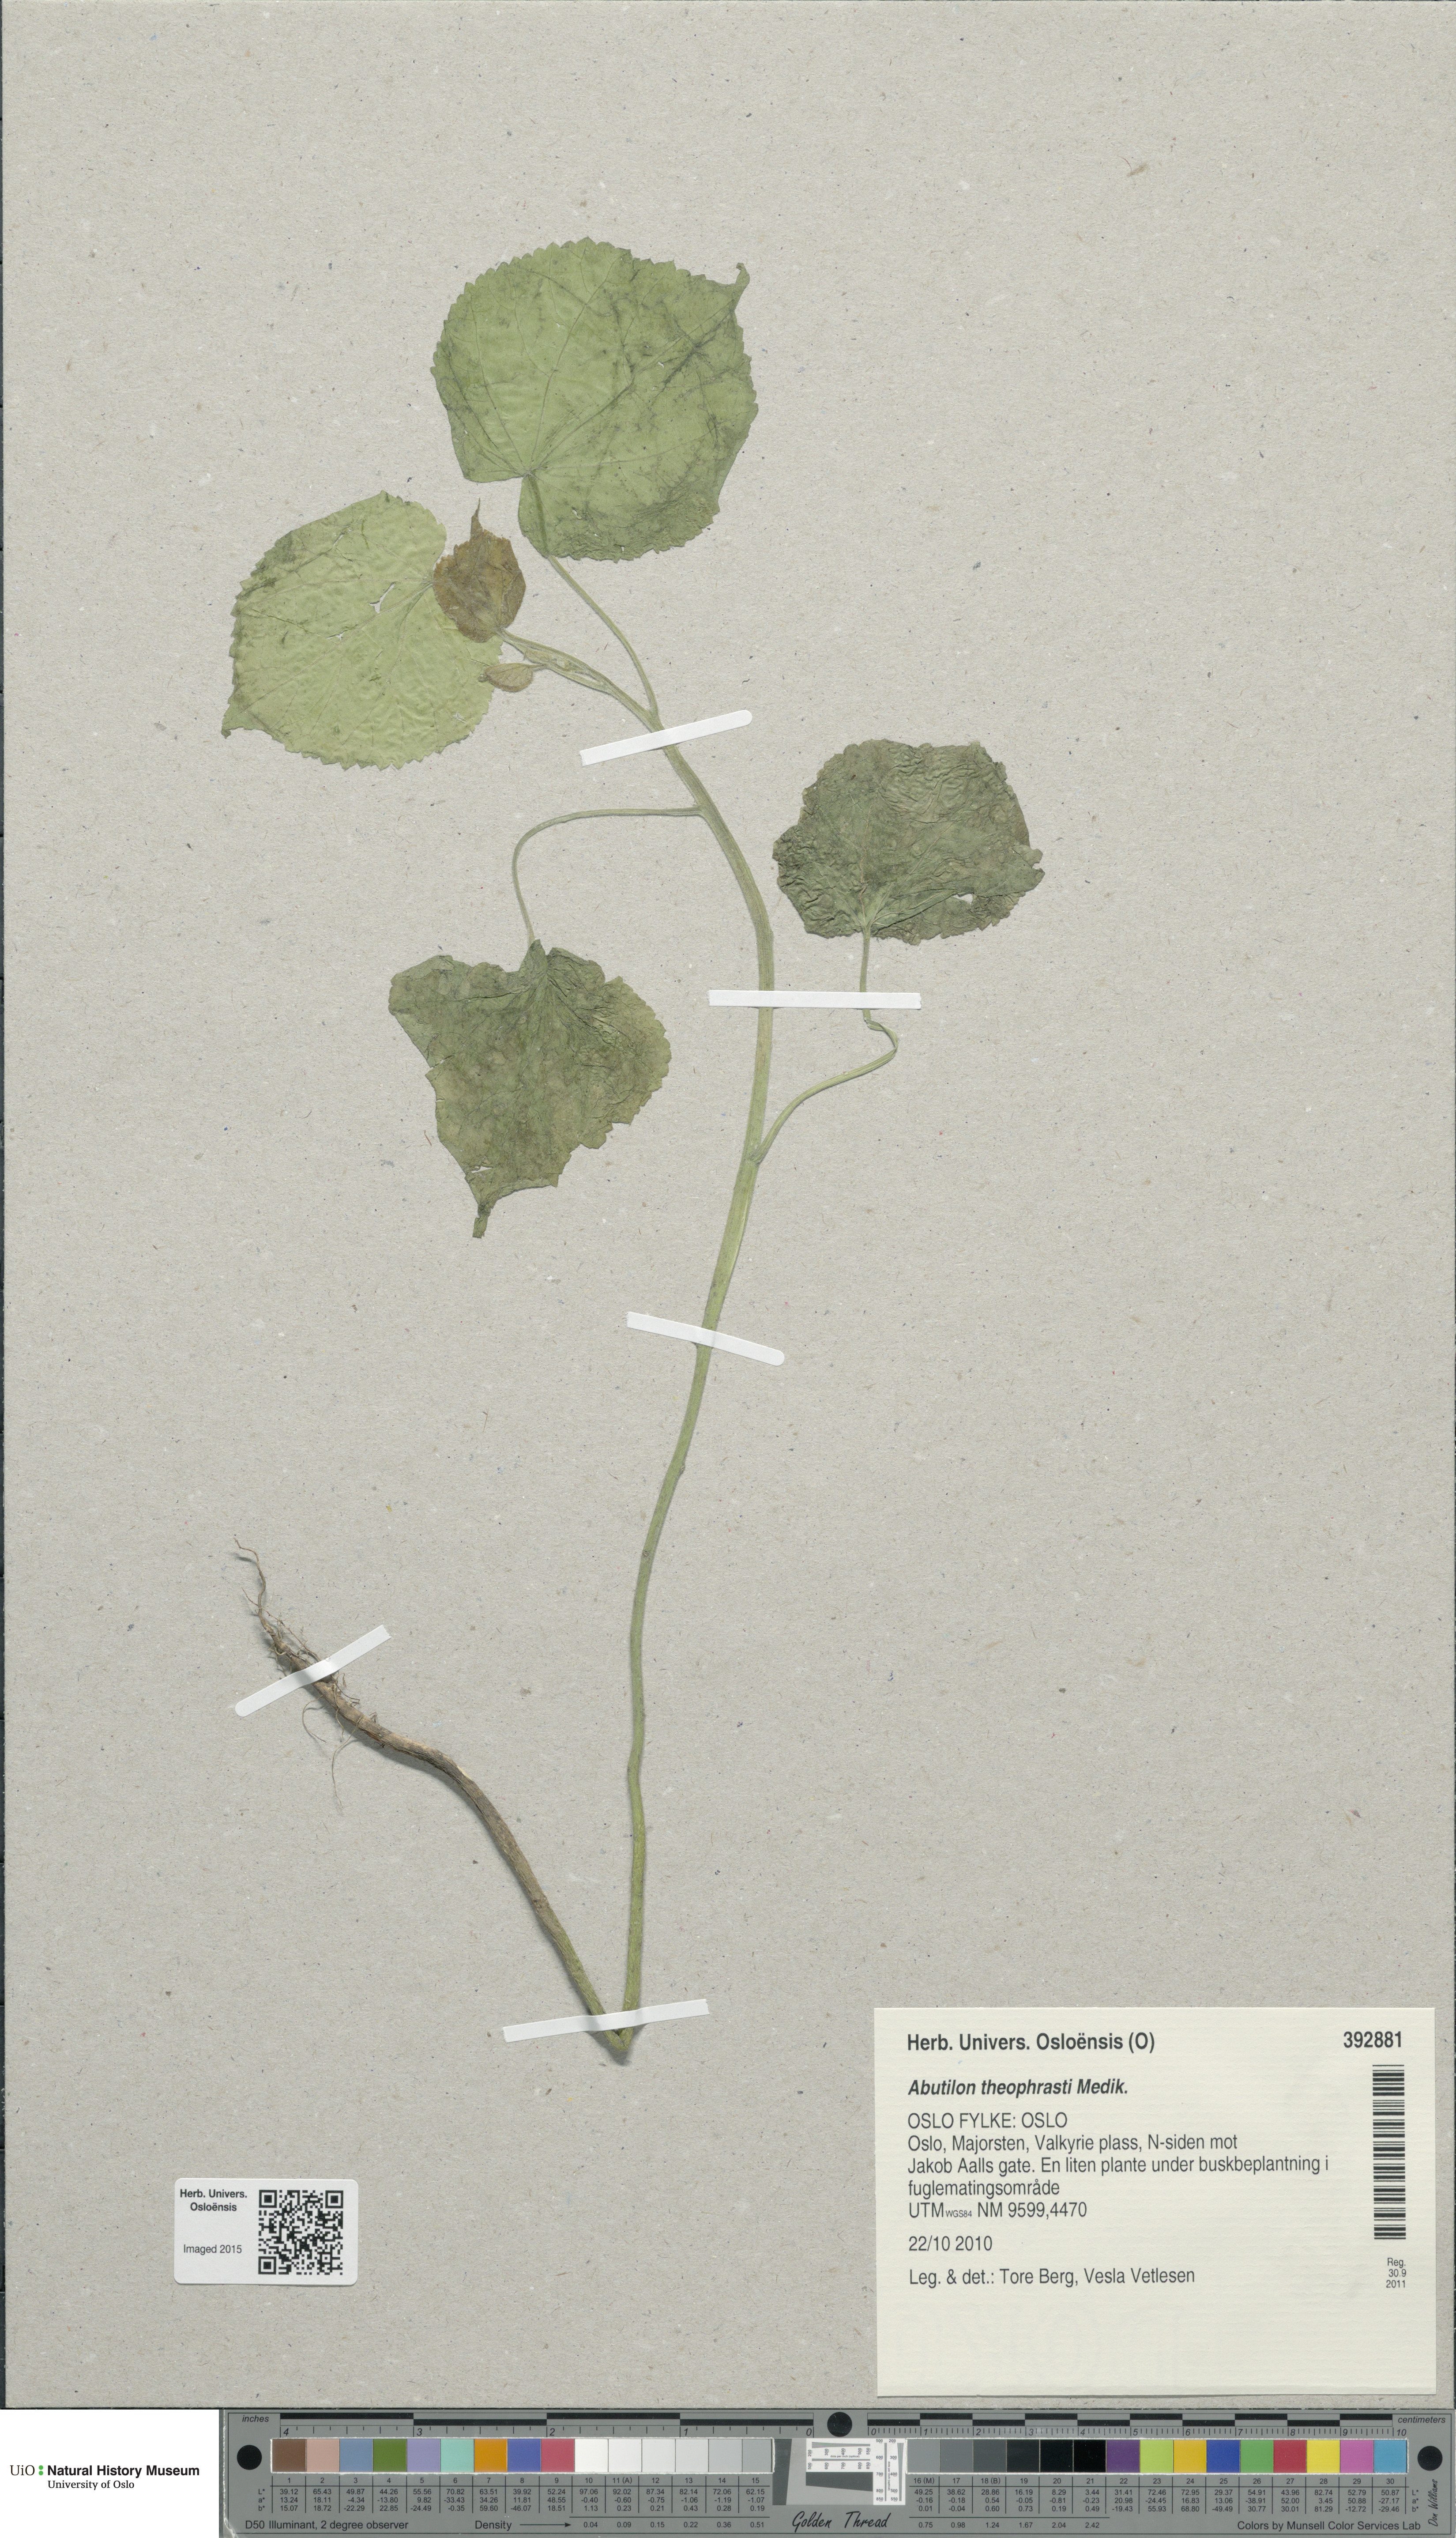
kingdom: Plantae
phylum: Tracheophyta
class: Magnoliopsida
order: Malvales
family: Malvaceae
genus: Abutilon
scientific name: Abutilon theophrasti
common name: Velvetleaf
